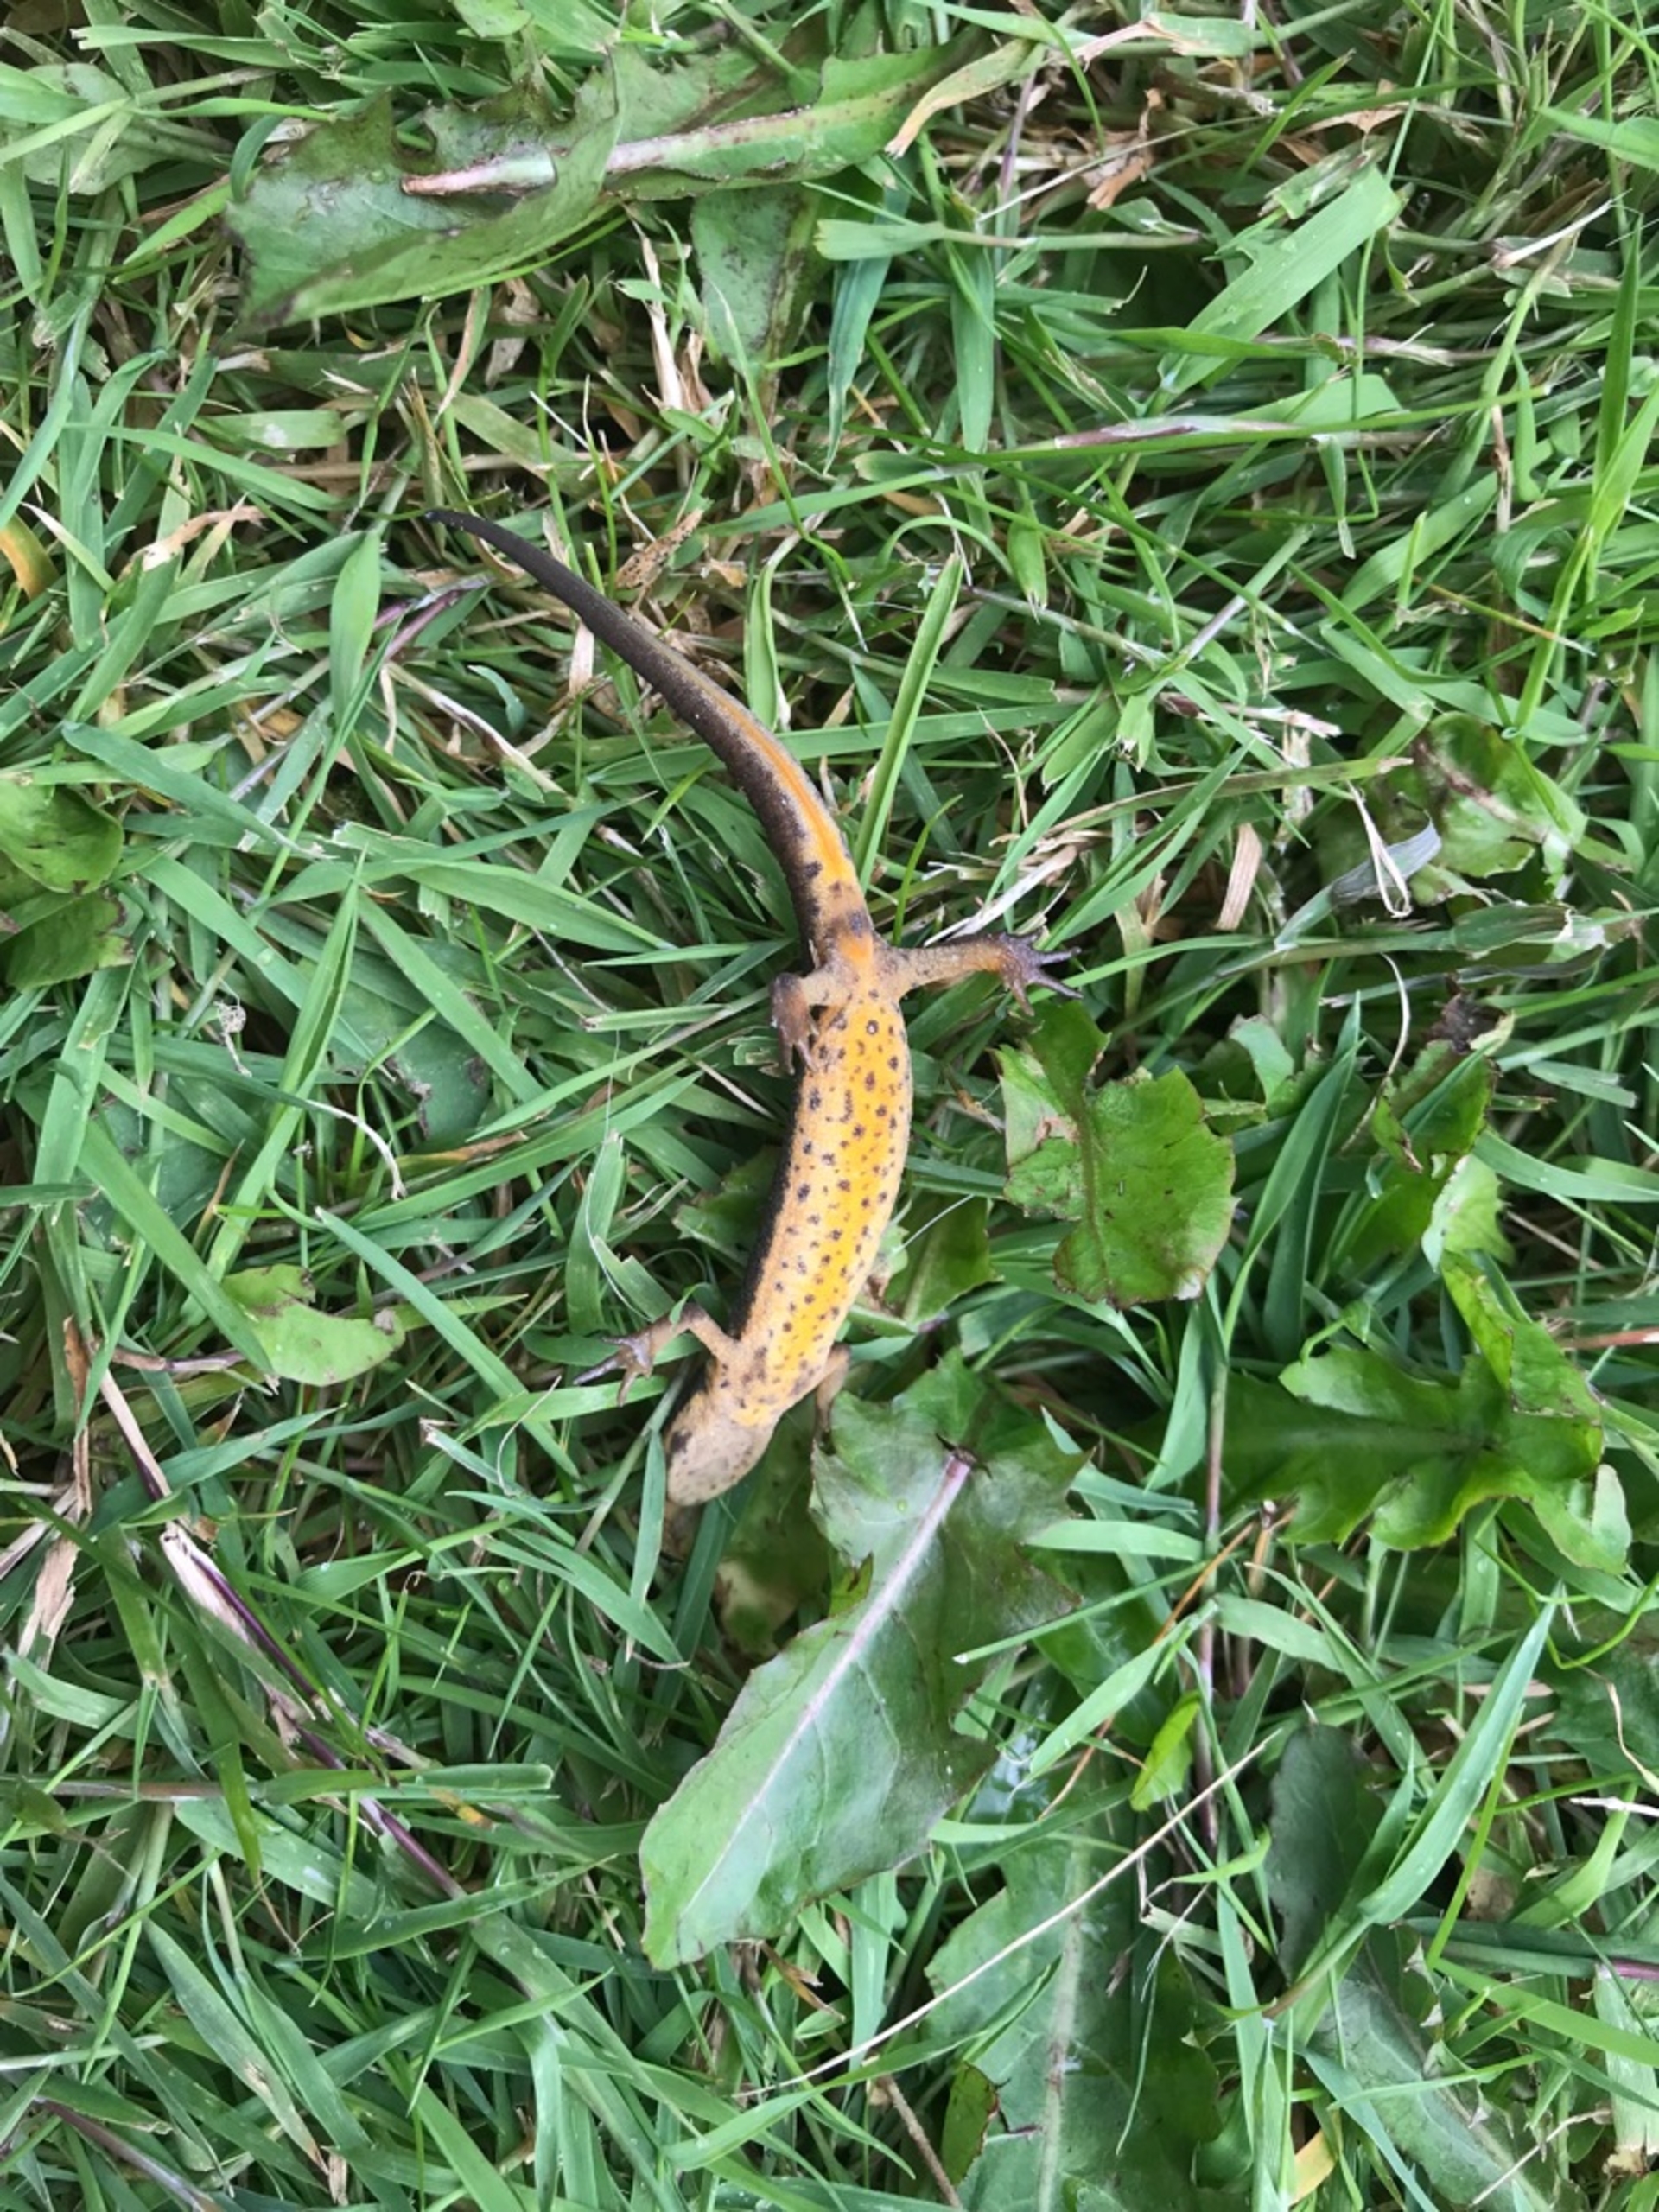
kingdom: Animalia
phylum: Chordata
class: Amphibia
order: Caudata
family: Salamandridae
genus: Lissotriton
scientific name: Lissotriton vulgaris
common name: Lille vandsalamander
